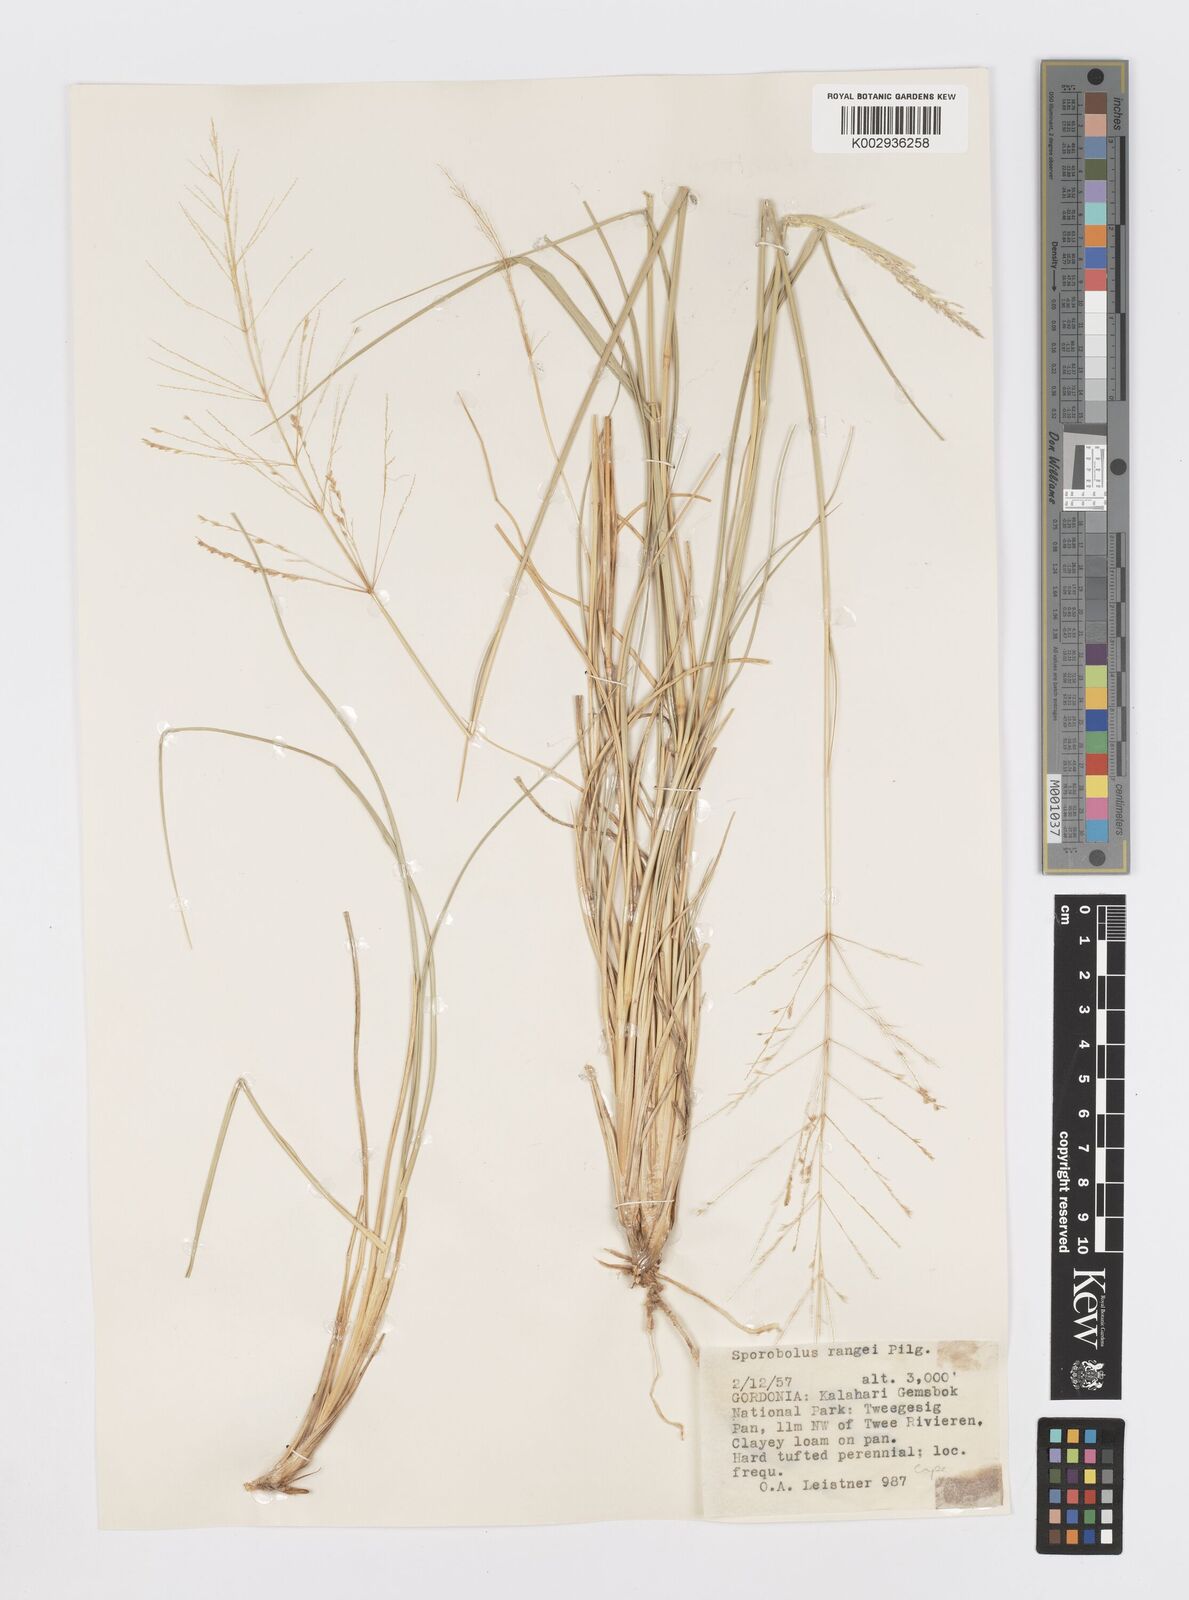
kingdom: Plantae
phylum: Tracheophyta
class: Liliopsida
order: Poales
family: Poaceae
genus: Sporobolus
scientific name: Sporobolus ioclados
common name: Pan dropseed
